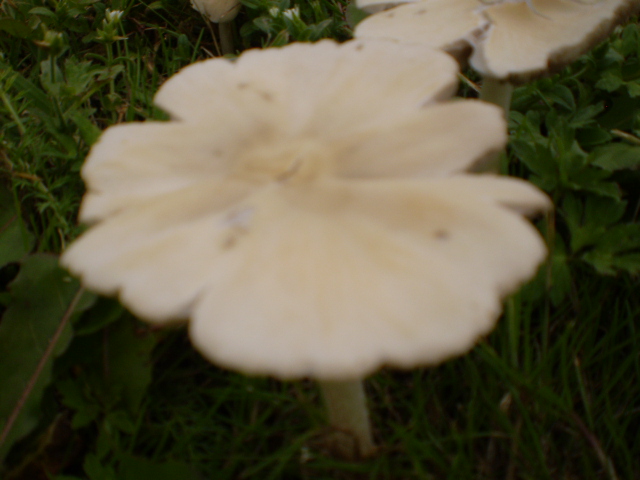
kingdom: Fungi
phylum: Basidiomycota
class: Agaricomycetes
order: Agaricales
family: Psathyrellaceae
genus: Candolleomyces
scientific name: Candolleomyces candolleanus
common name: Candolles mørkhat
